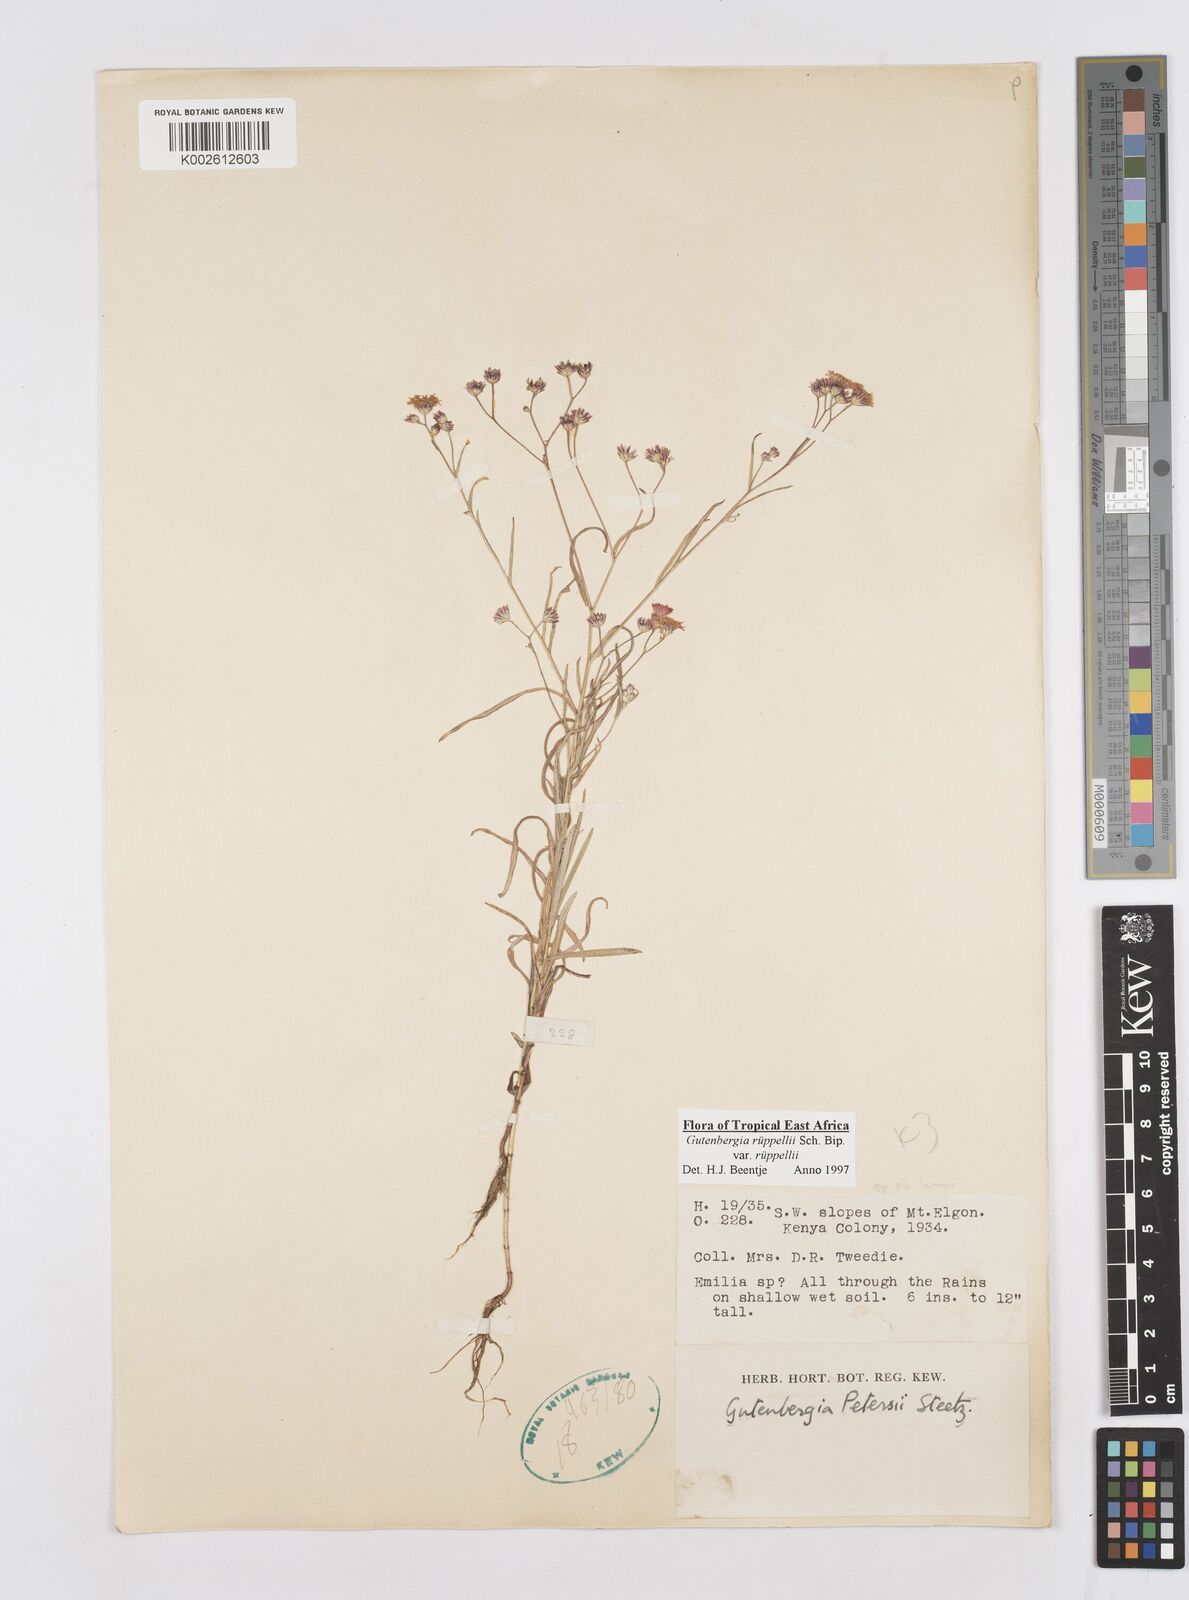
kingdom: Plantae
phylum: Tracheophyta
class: Magnoliopsida
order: Asterales
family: Asteraceae
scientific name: Asteraceae
